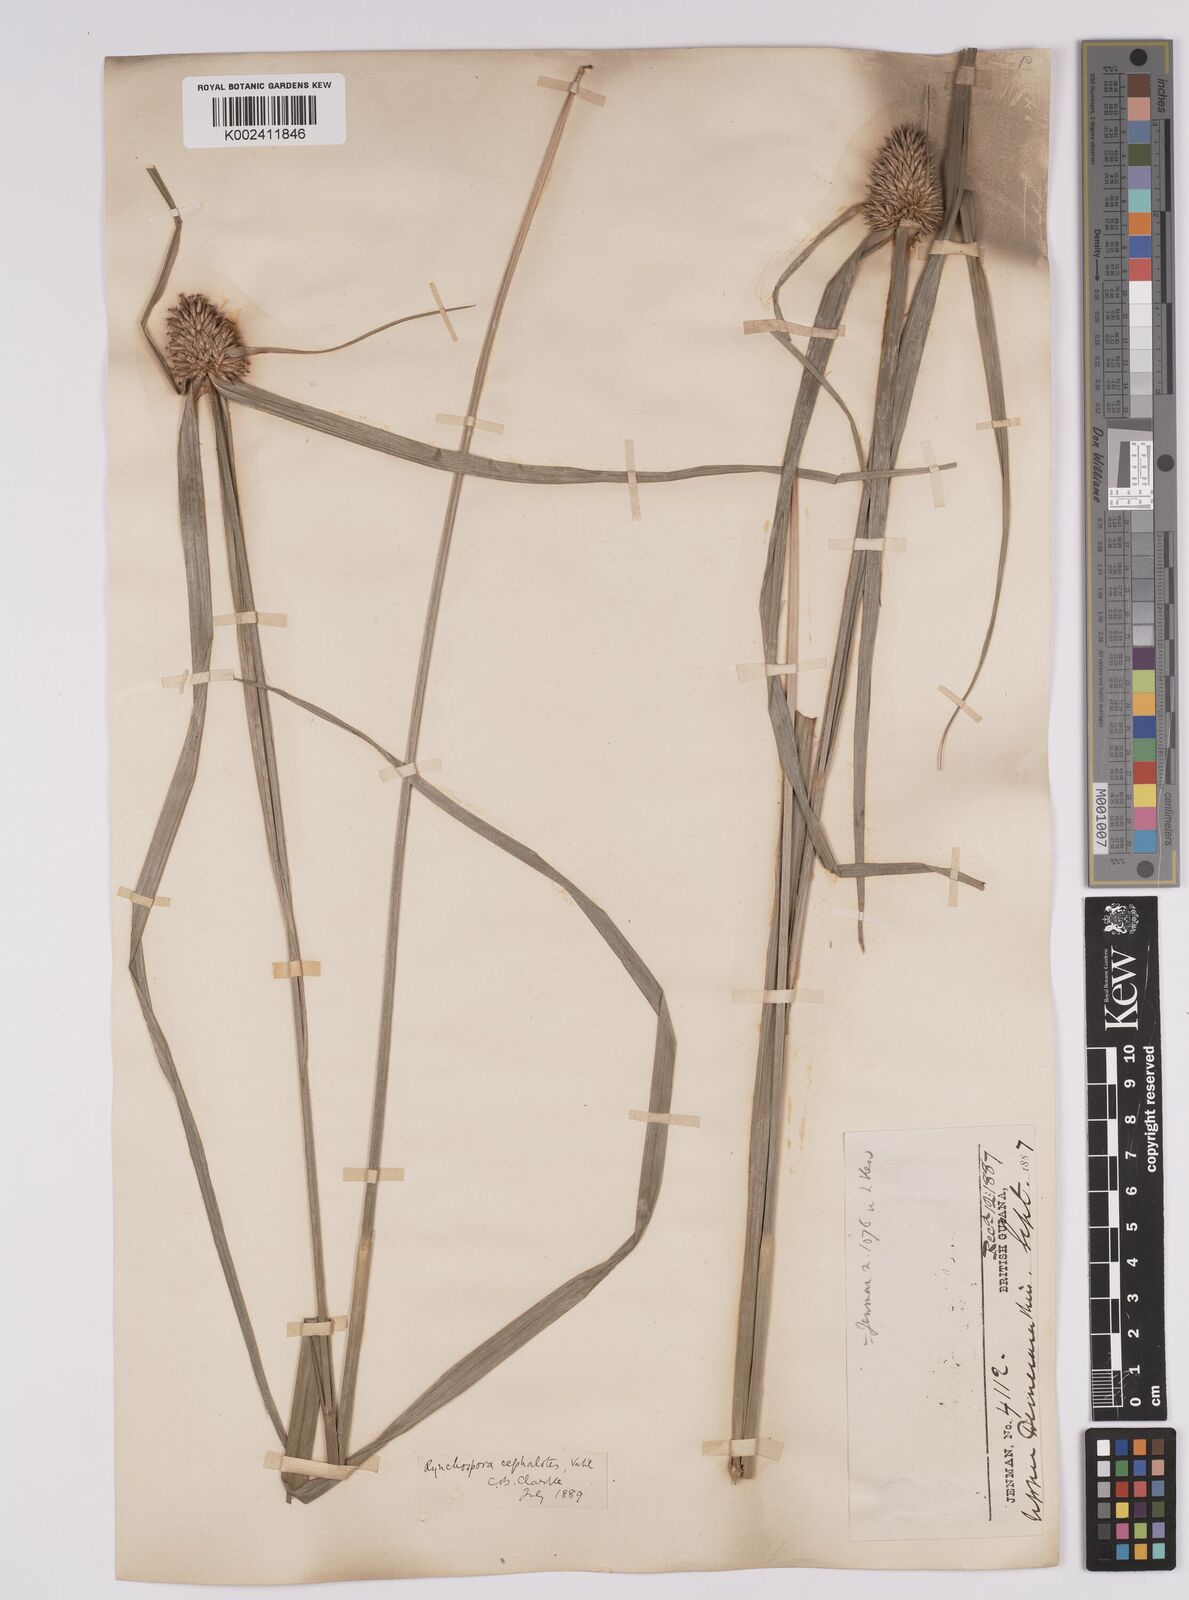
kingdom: Plantae
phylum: Tracheophyta
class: Liliopsida
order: Poales
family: Cyperaceae
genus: Rhynchospora
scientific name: Rhynchospora cephalotes
